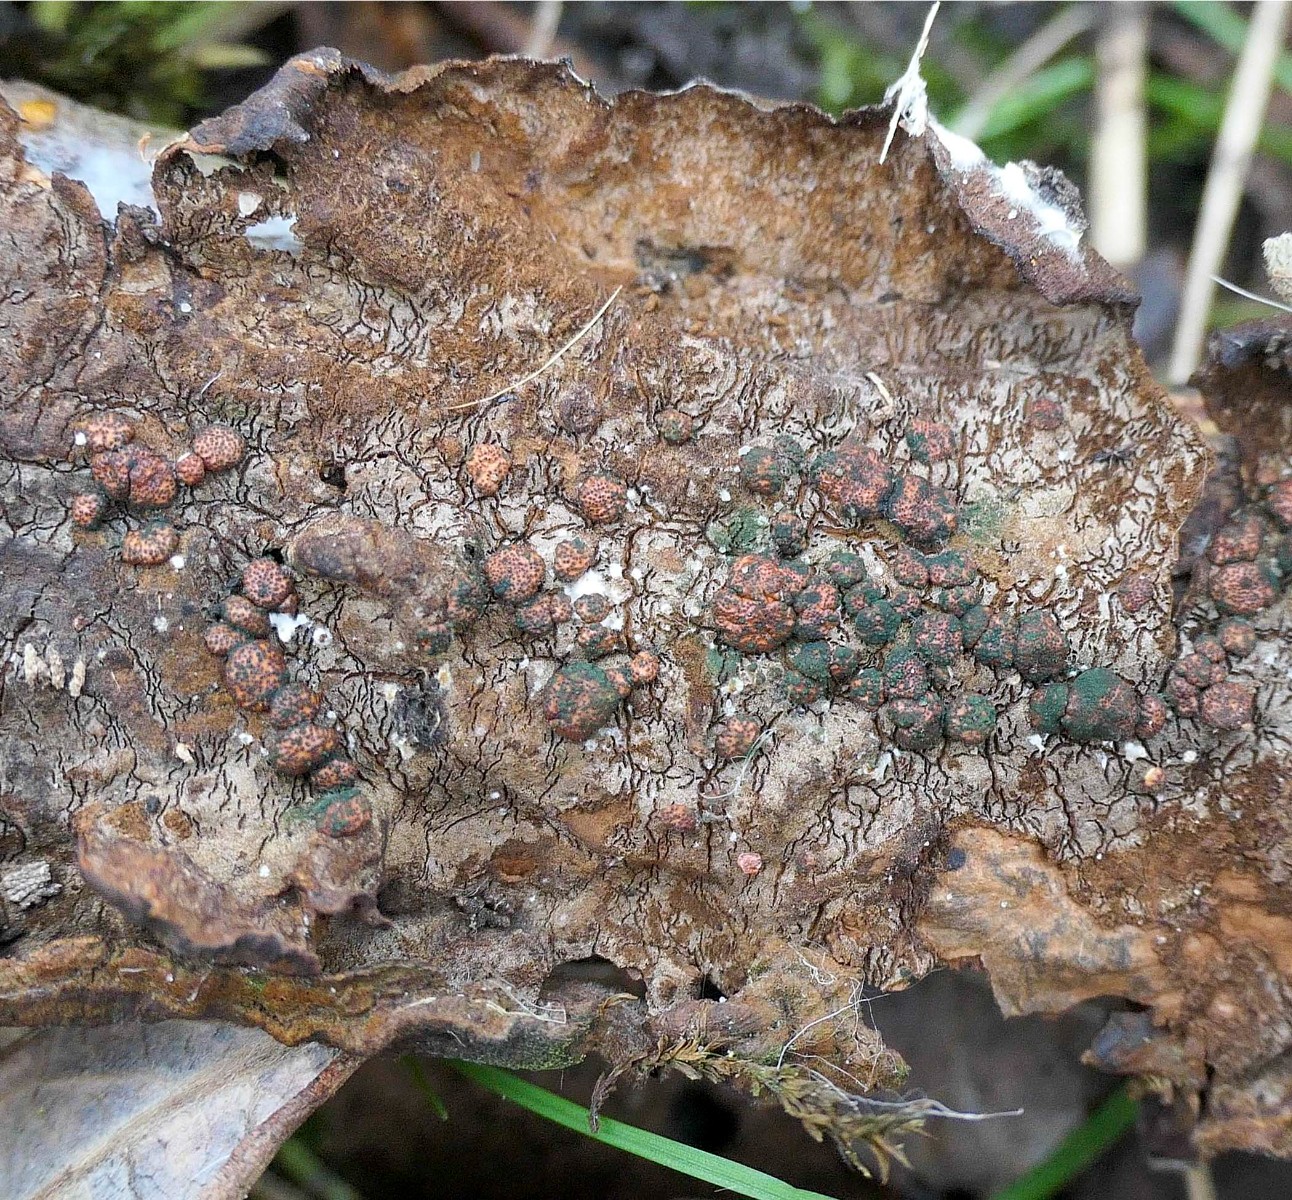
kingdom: Fungi
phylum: Ascomycota
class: Sordariomycetes
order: Hypocreales
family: Hypocreaceae
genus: Trichoderma
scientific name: Trichoderma estonicum
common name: ruslæder-kødkerne
